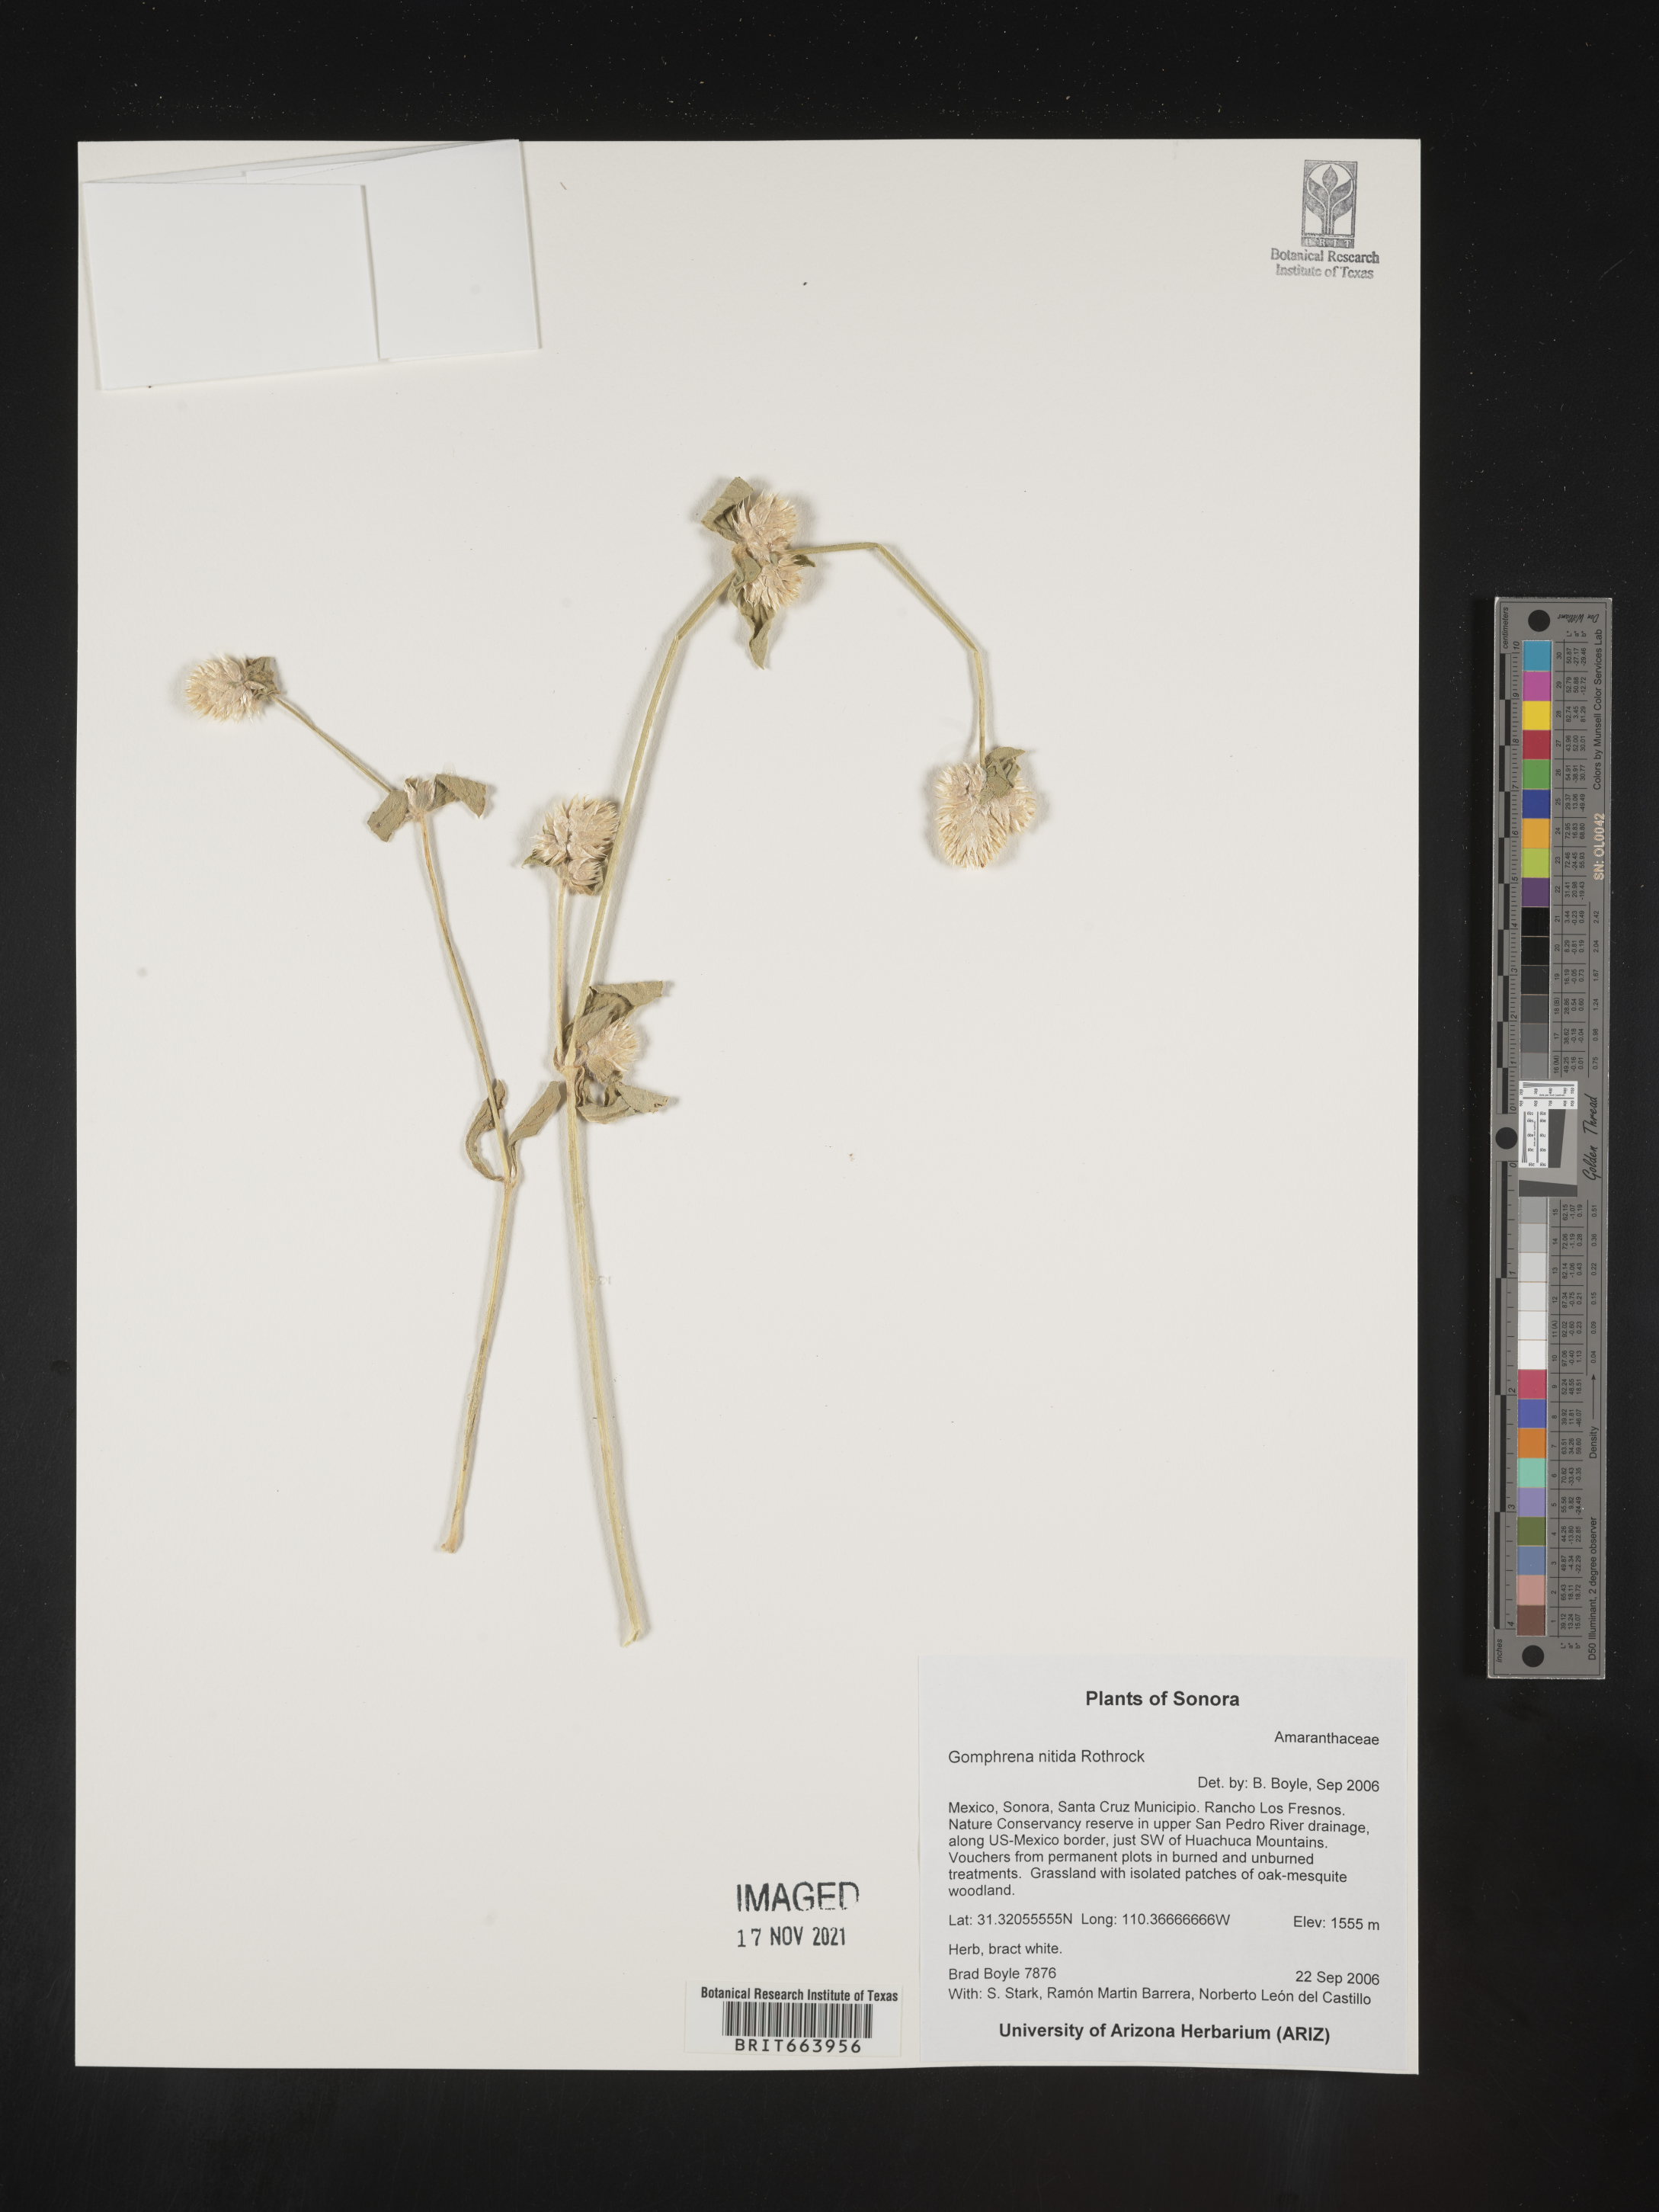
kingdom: Plantae
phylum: Tracheophyta
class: Magnoliopsida
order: Caryophyllales
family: Amaranthaceae
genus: Gomphrena
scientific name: Gomphrena
